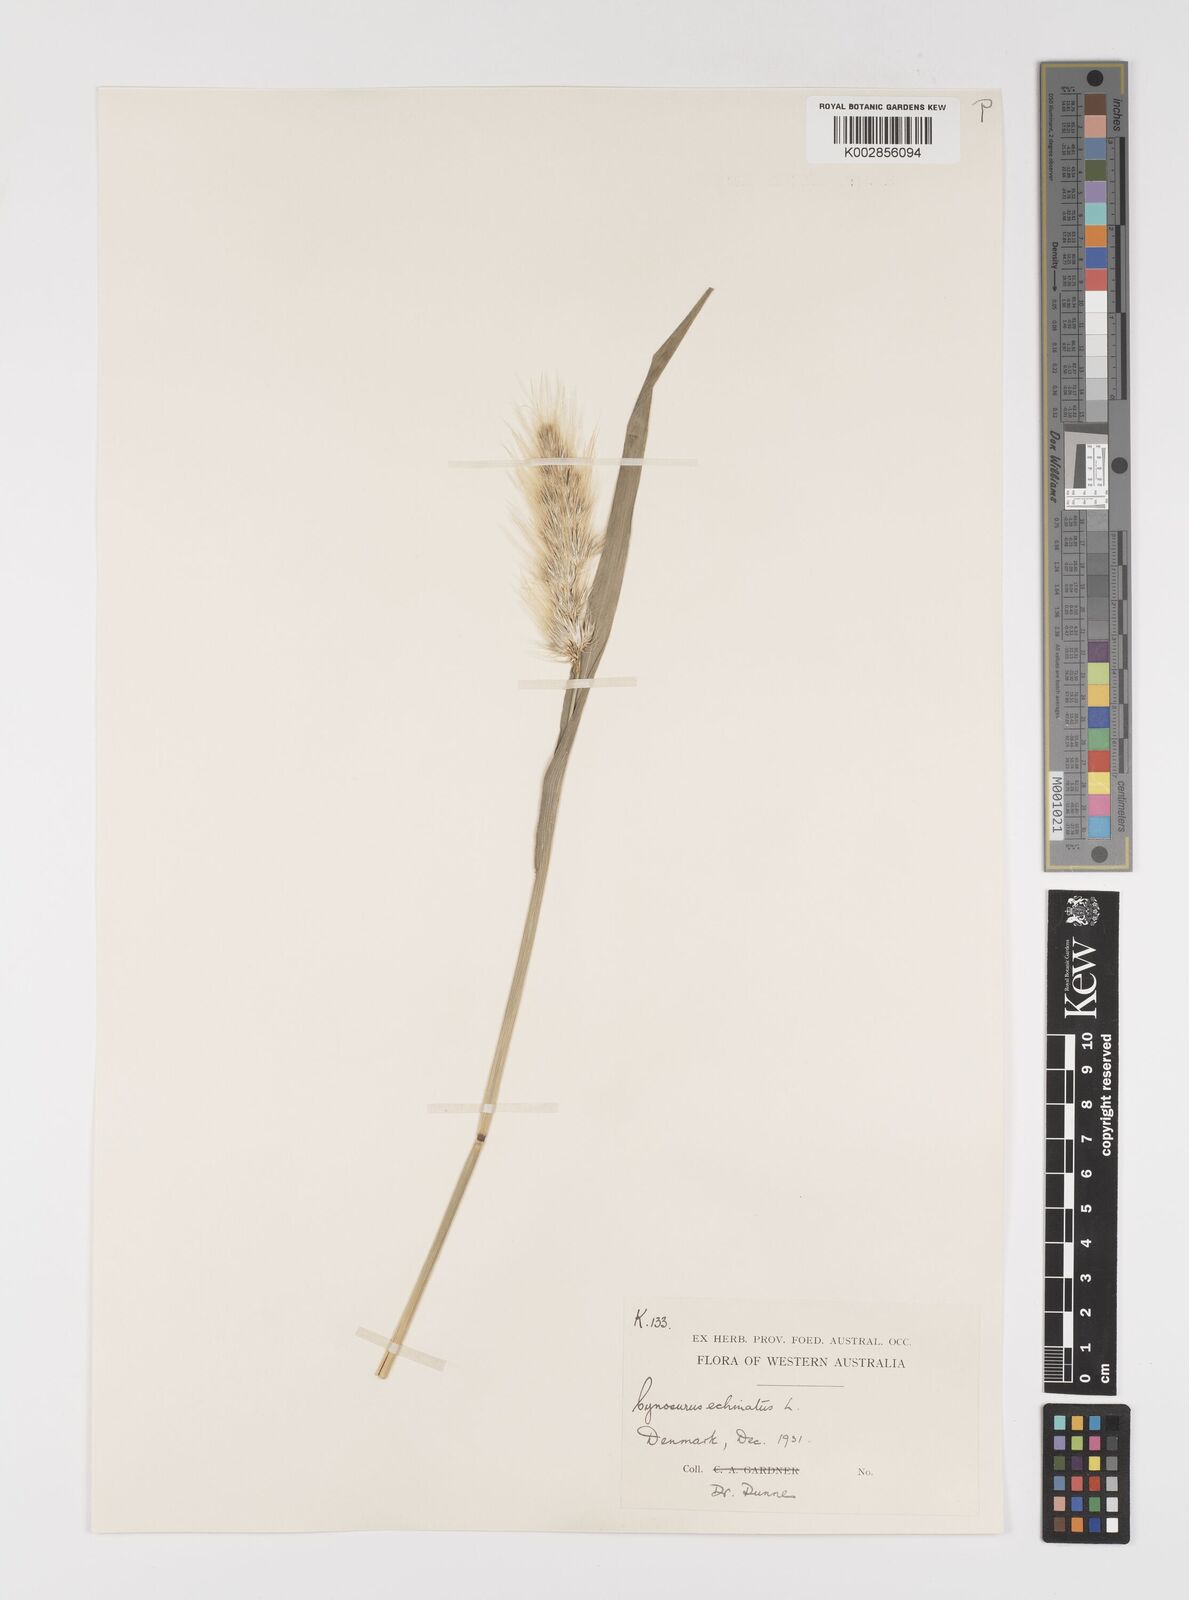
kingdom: Plantae
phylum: Tracheophyta
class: Liliopsida
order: Poales
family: Poaceae
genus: Cynosurus
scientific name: Cynosurus echinatus
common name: Rough dog's-tail
